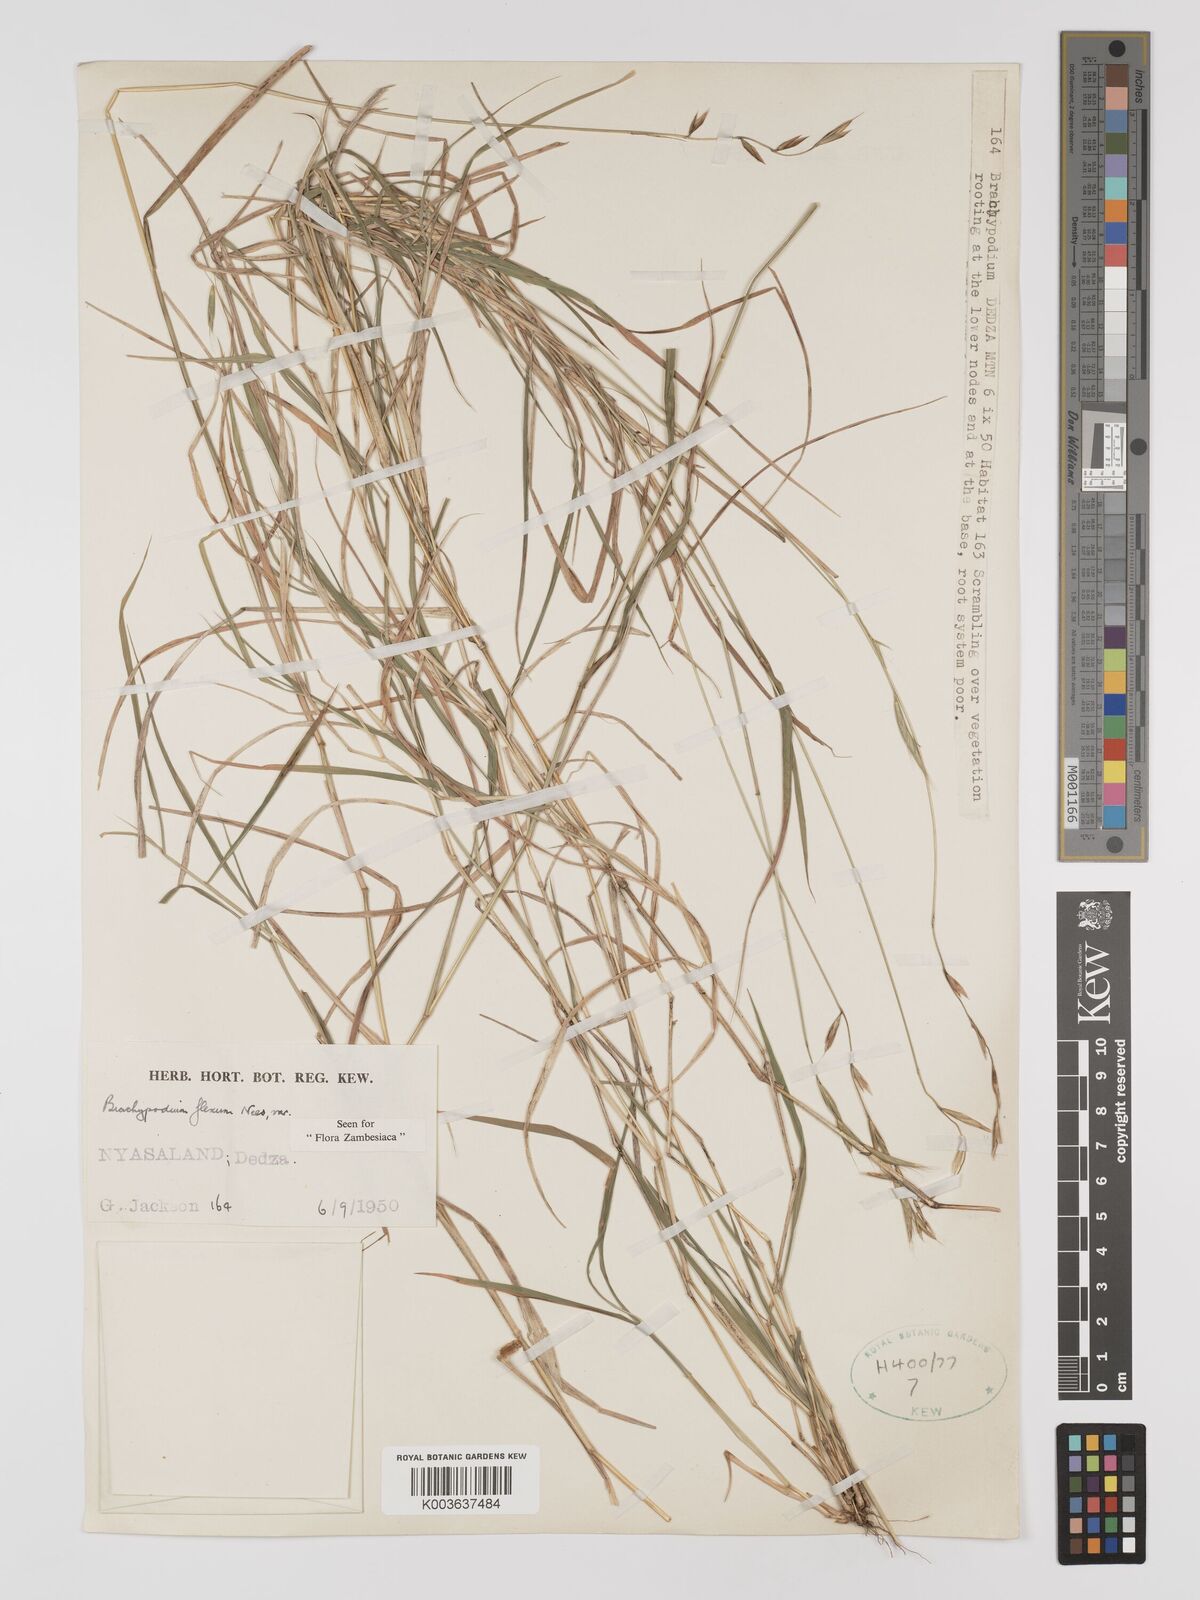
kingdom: Plantae
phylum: Tracheophyta
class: Liliopsida
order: Poales
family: Poaceae
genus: Brachypodium
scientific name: Brachypodium flexum
